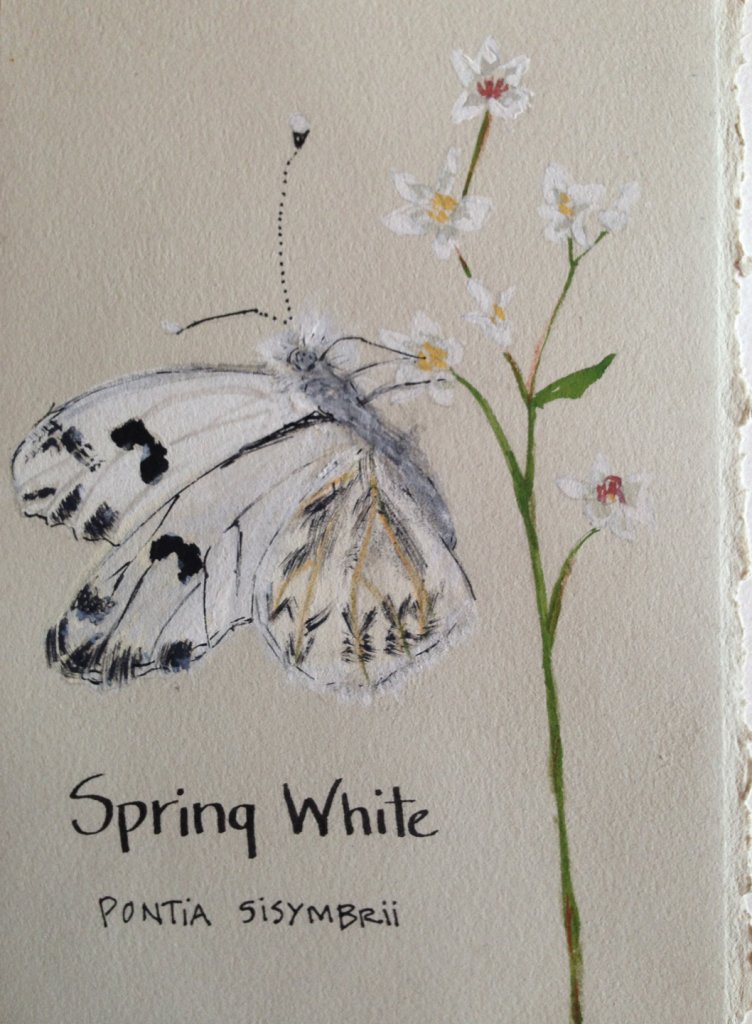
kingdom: Animalia
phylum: Arthropoda
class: Insecta
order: Lepidoptera
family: Pieridae
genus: Pontia
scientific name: Pontia sisymbrii
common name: Spring White
